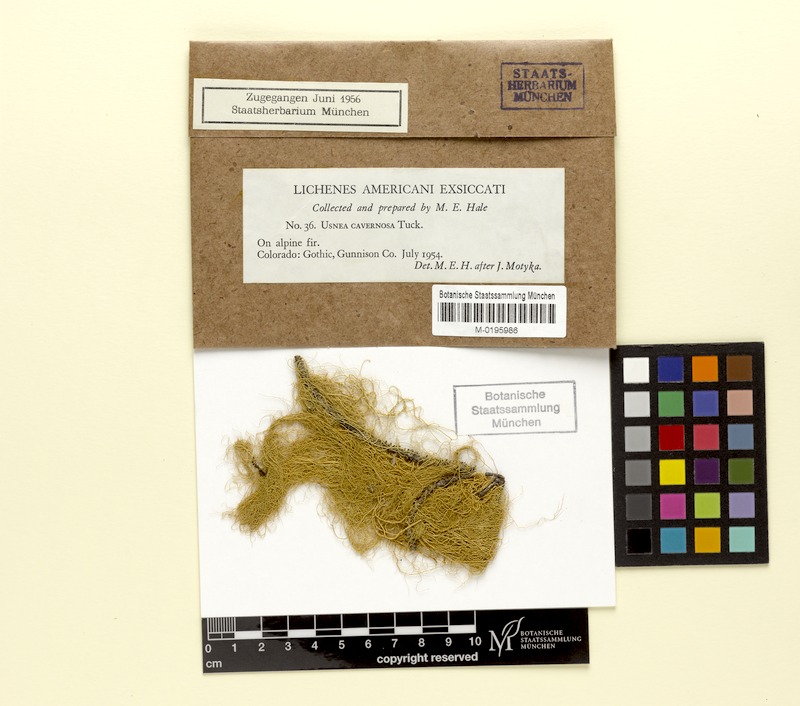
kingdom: Fungi
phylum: Ascomycota
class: Lecanoromycetes
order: Lecanorales
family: Parmeliaceae
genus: Usnea
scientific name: Usnea cavernosa
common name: Pitted beard lichen
